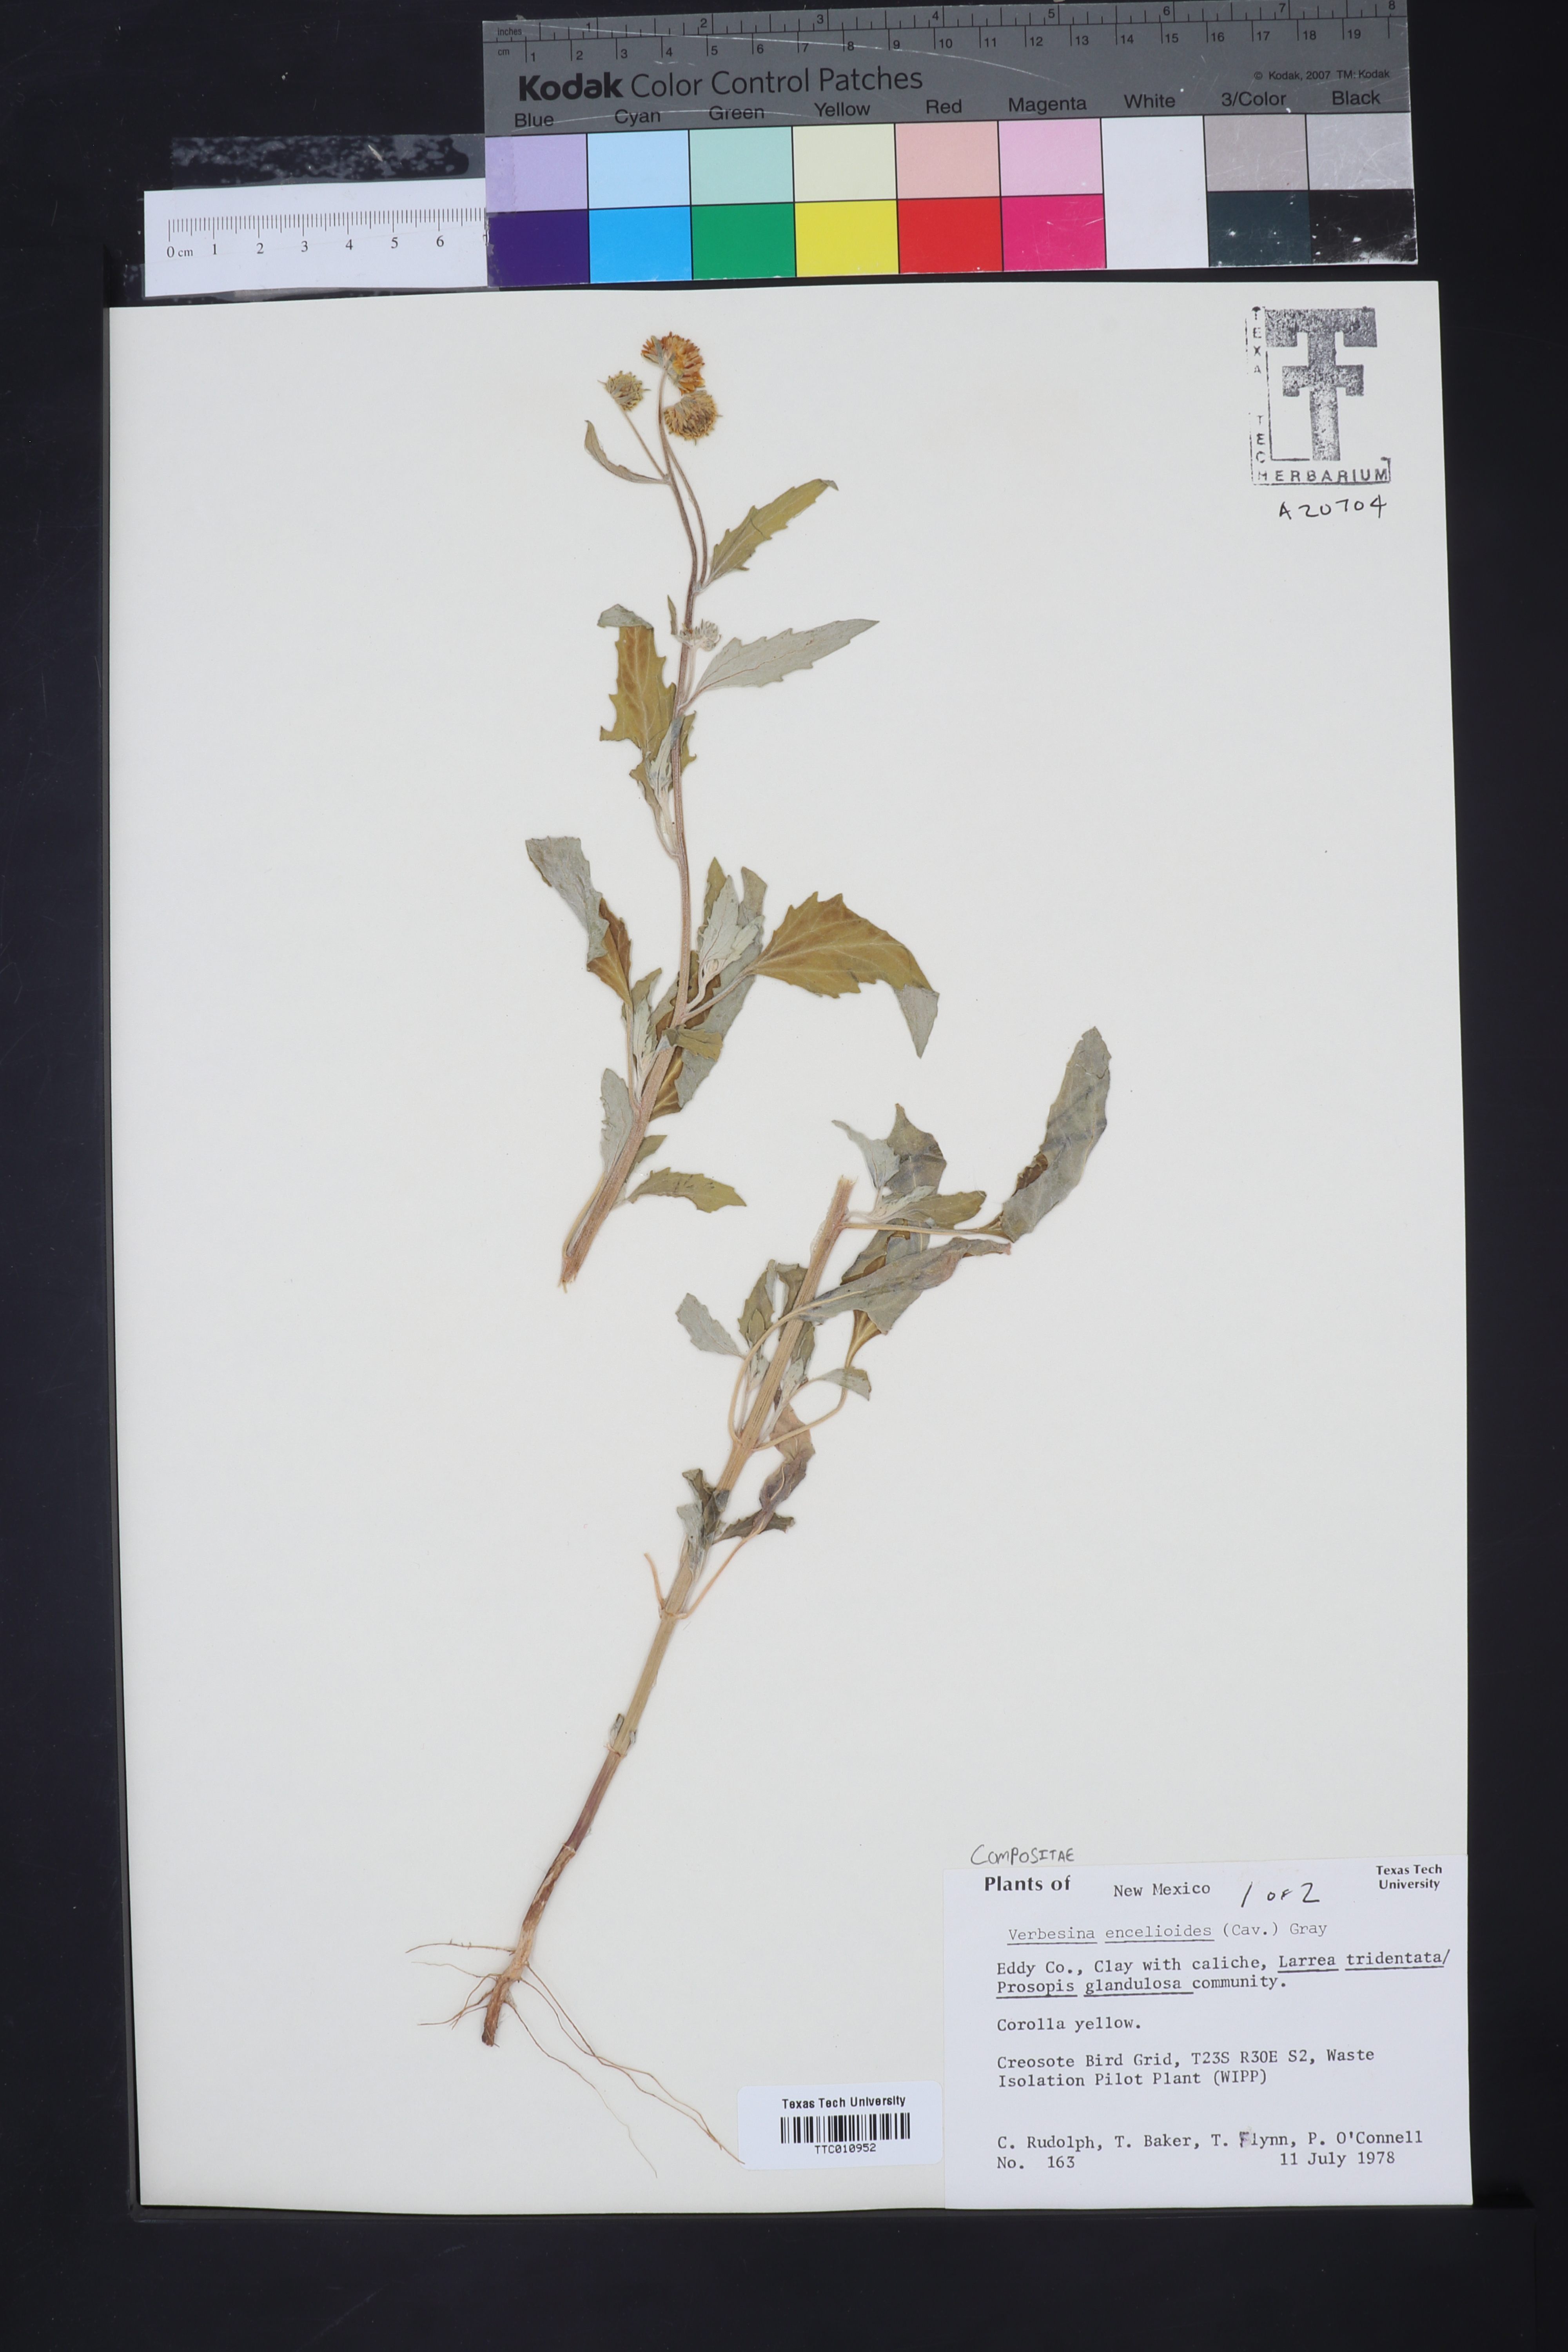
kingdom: Plantae
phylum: Tracheophyta
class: Magnoliopsida
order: Asterales
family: Asteraceae
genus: Verbesina
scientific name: Verbesina encelioides
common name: Golden crownbeard
